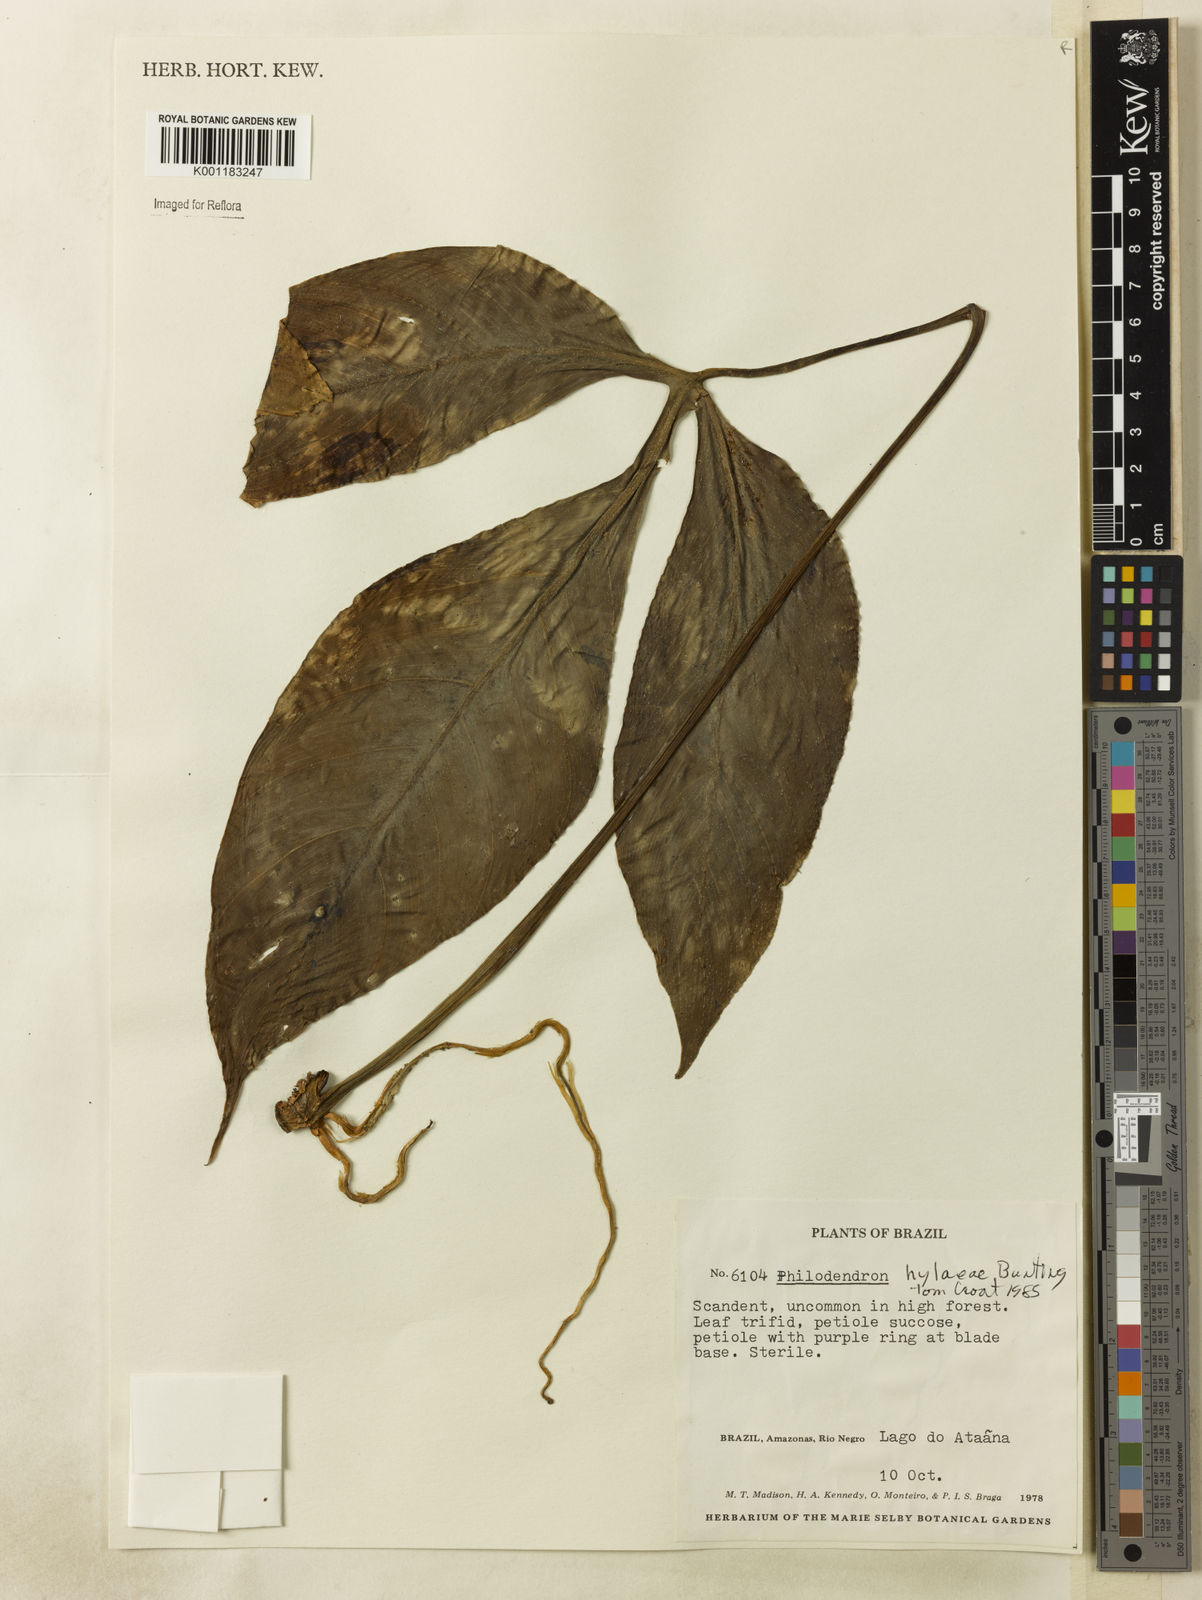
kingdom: Plantae
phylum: Tracheophyta
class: Liliopsida
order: Alismatales
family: Araceae
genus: Philodendron
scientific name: Philodendron hylaeae
